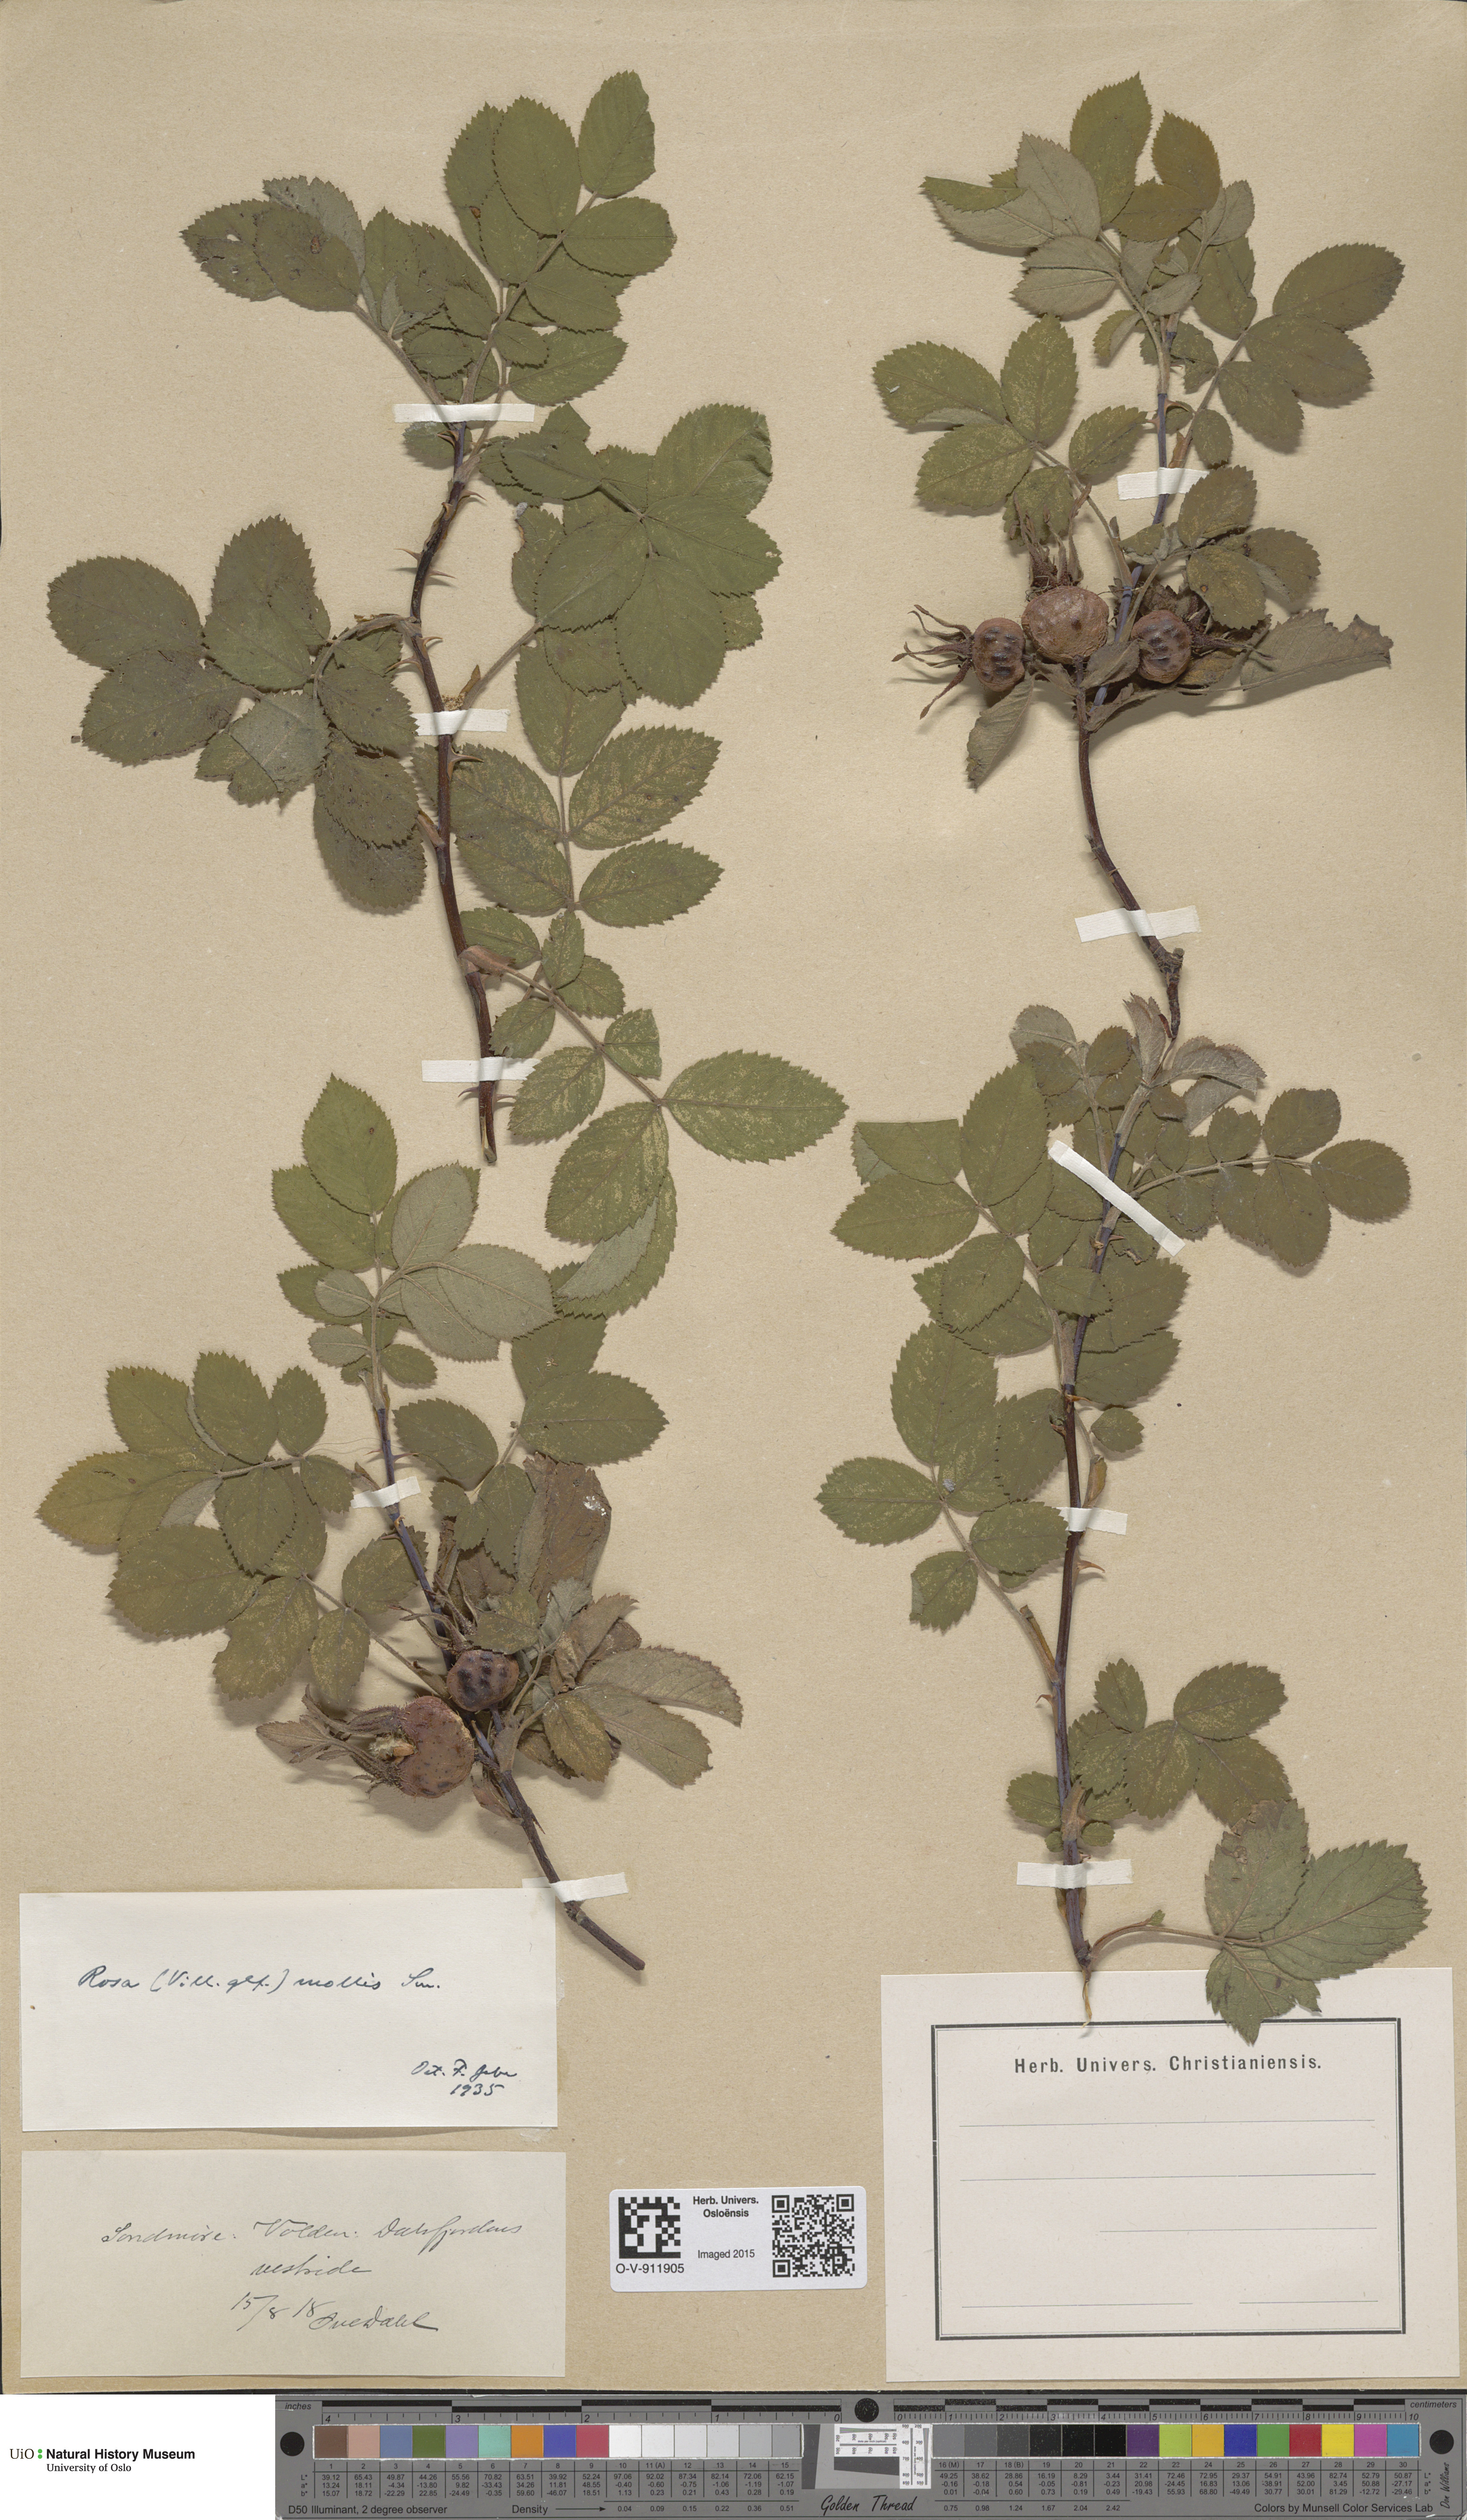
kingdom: Plantae
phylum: Tracheophyta
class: Magnoliopsida
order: Rosales
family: Rosaceae
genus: Rosa
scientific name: Rosa mollis
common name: Rose
